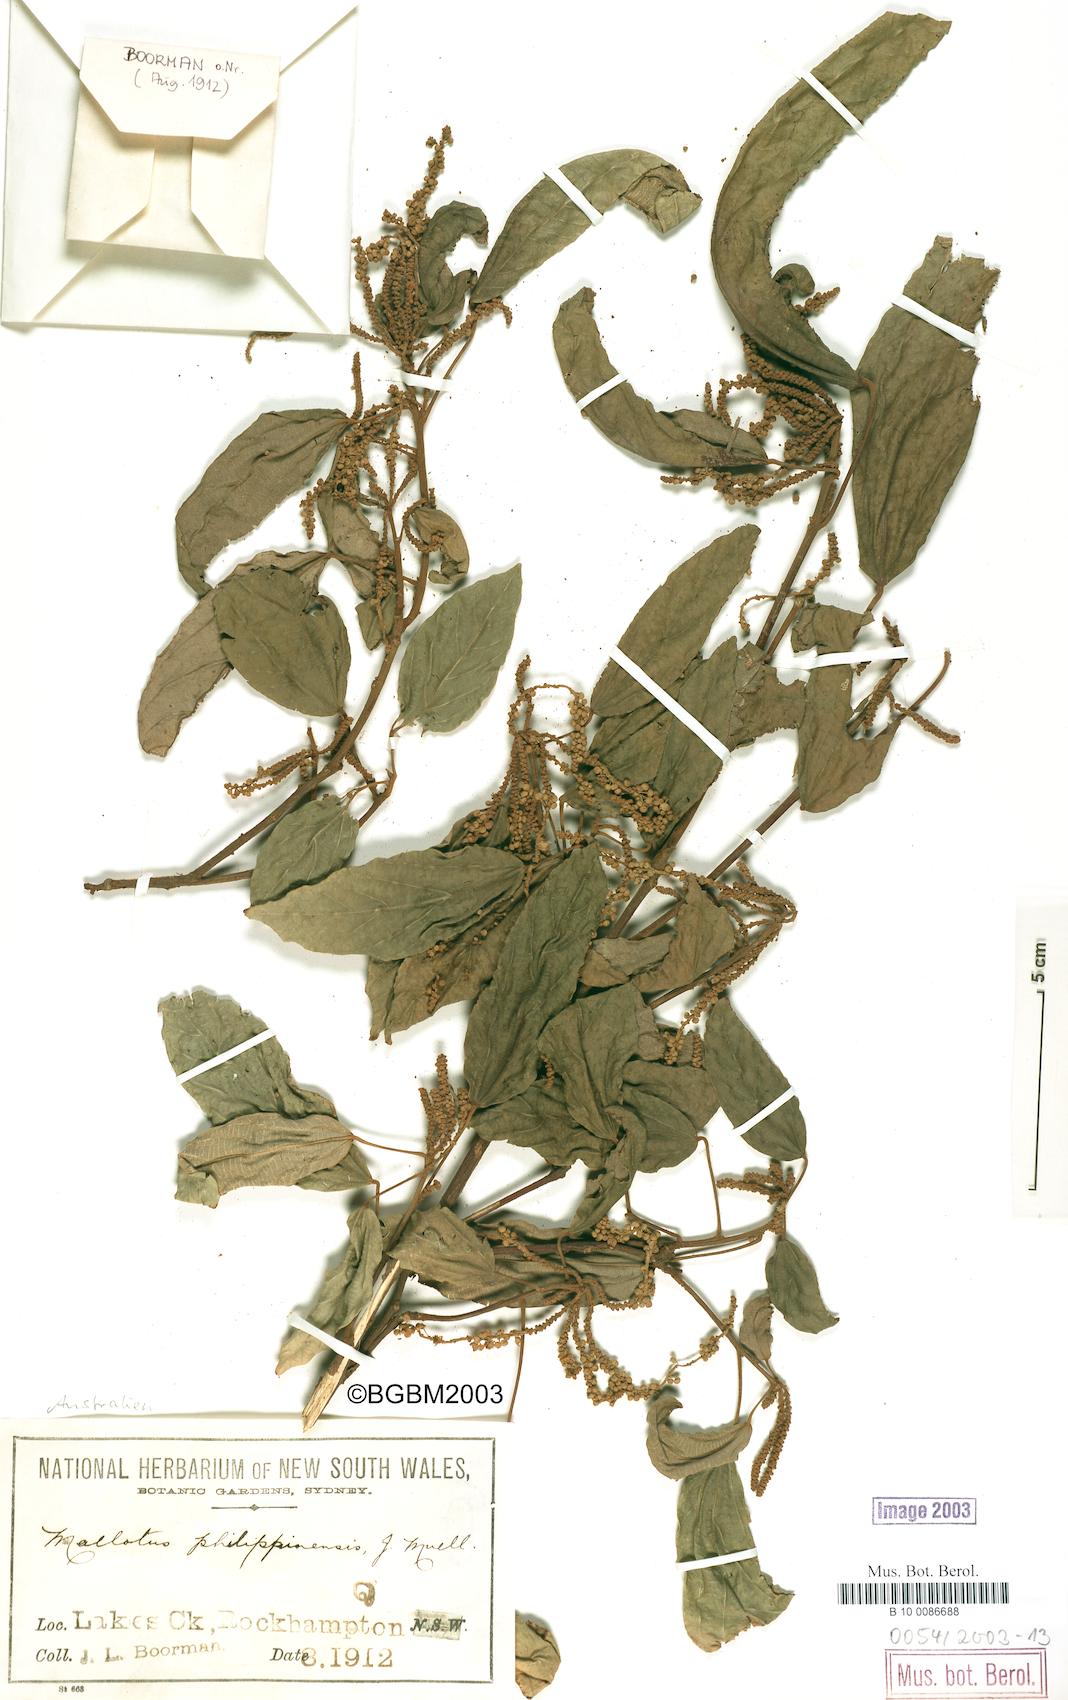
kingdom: Plantae
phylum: Tracheophyta
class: Magnoliopsida
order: Malpighiales
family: Euphorbiaceae
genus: Mallotus
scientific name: Mallotus philippensis
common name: Kamala tree
